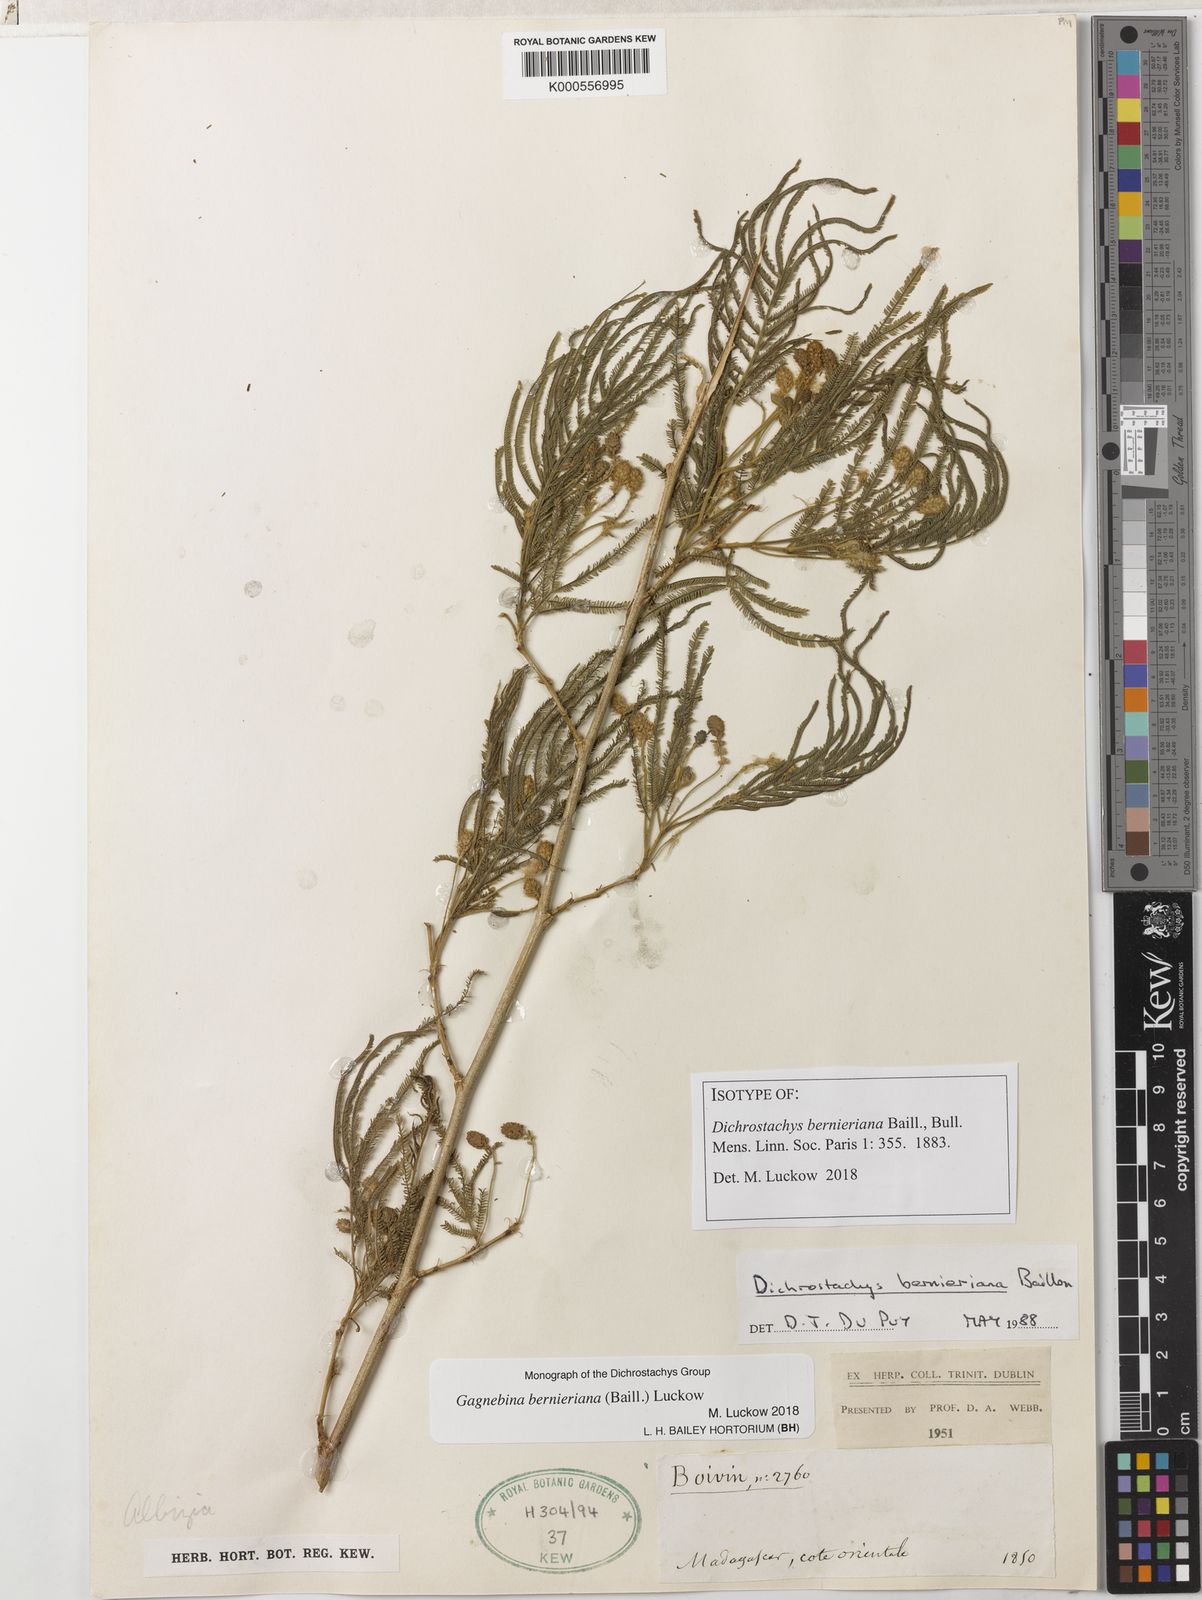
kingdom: Plantae
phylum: Tracheophyta
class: Magnoliopsida
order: Fabales
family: Fabaceae
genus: Dichrostachys
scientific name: Dichrostachys bernieriana
